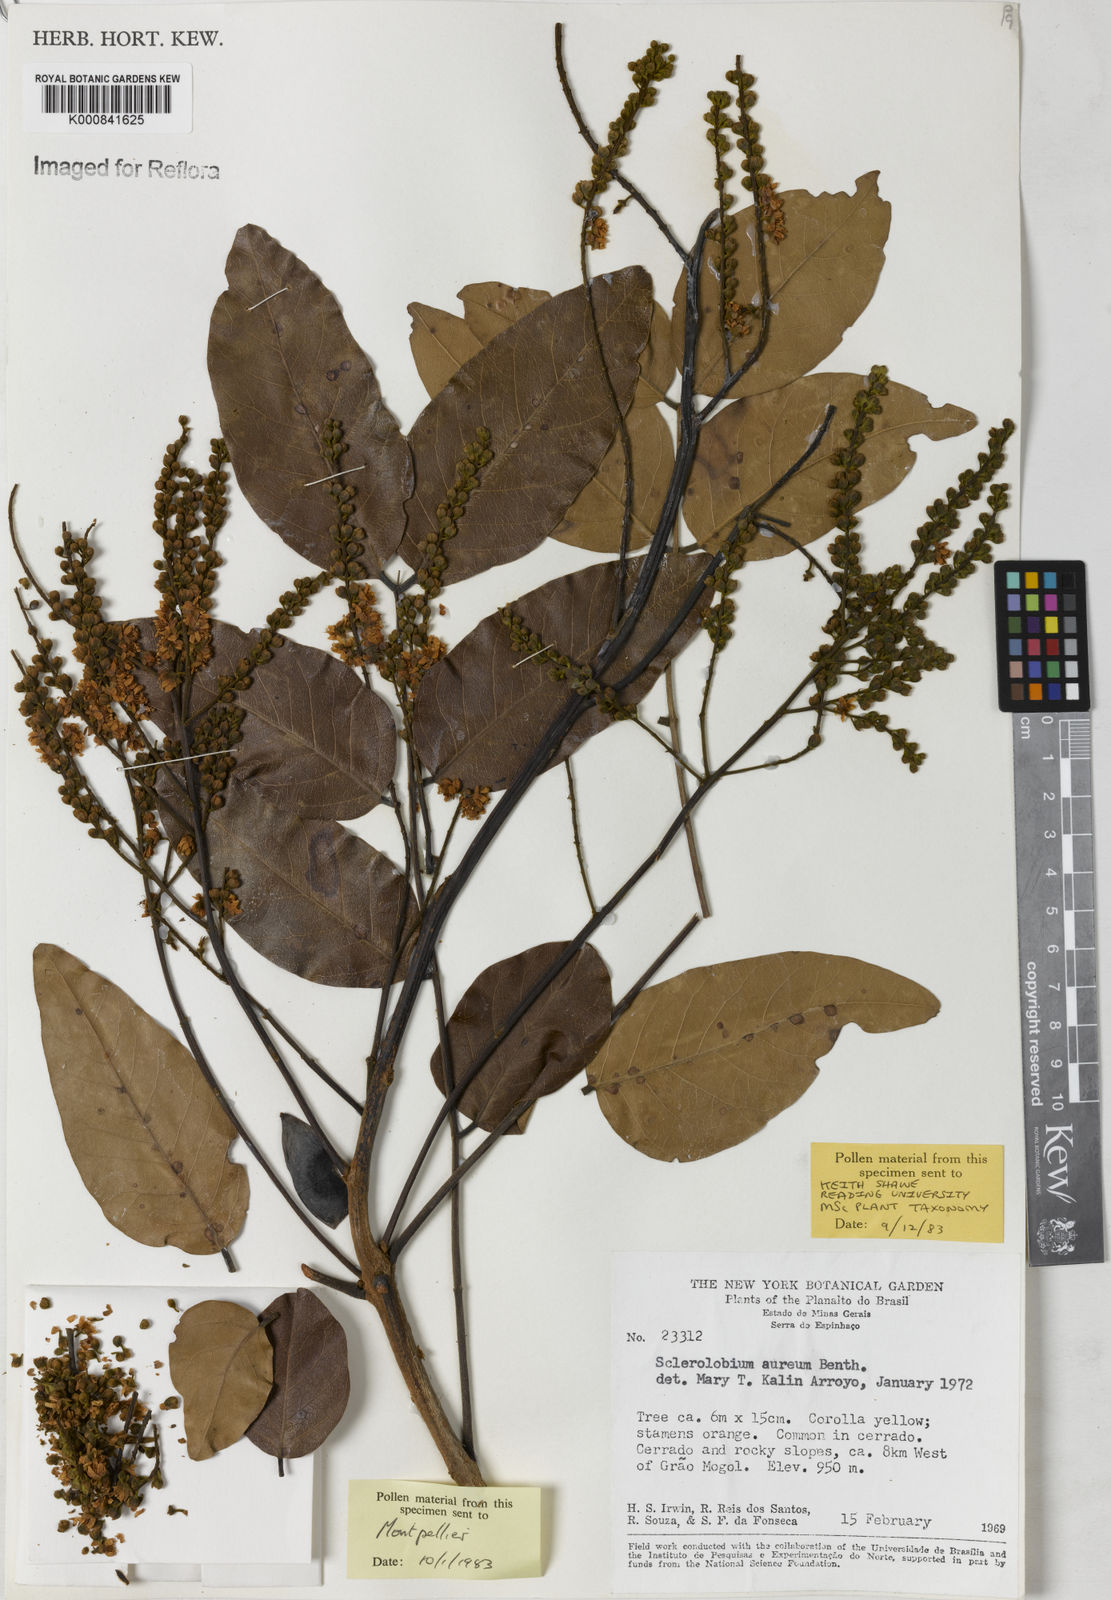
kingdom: Plantae
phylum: Tracheophyta
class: Magnoliopsida
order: Fabales
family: Fabaceae
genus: Tachigali
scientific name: Tachigali aurea
